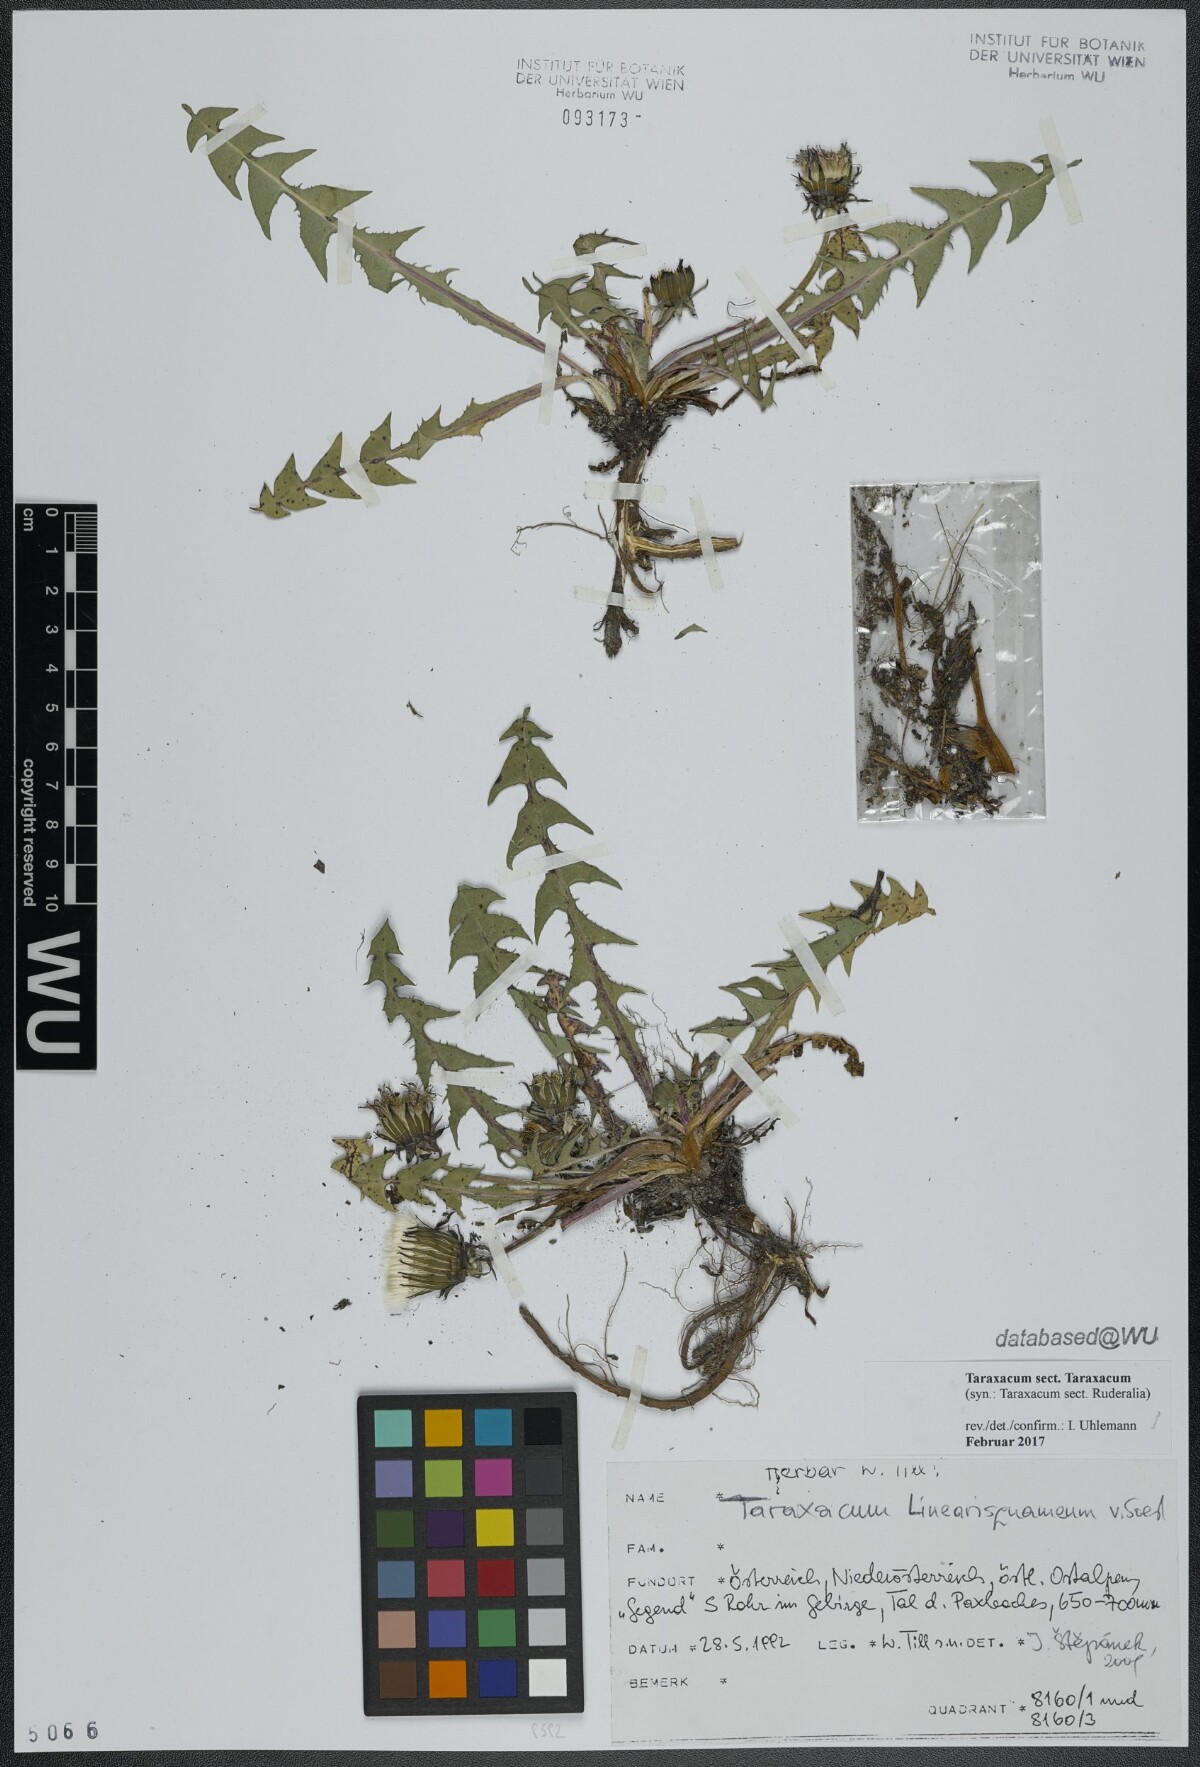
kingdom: Plantae
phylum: Tracheophyta
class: Magnoliopsida
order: Asterales
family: Asteraceae
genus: Taraxacum
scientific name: Taraxacum
